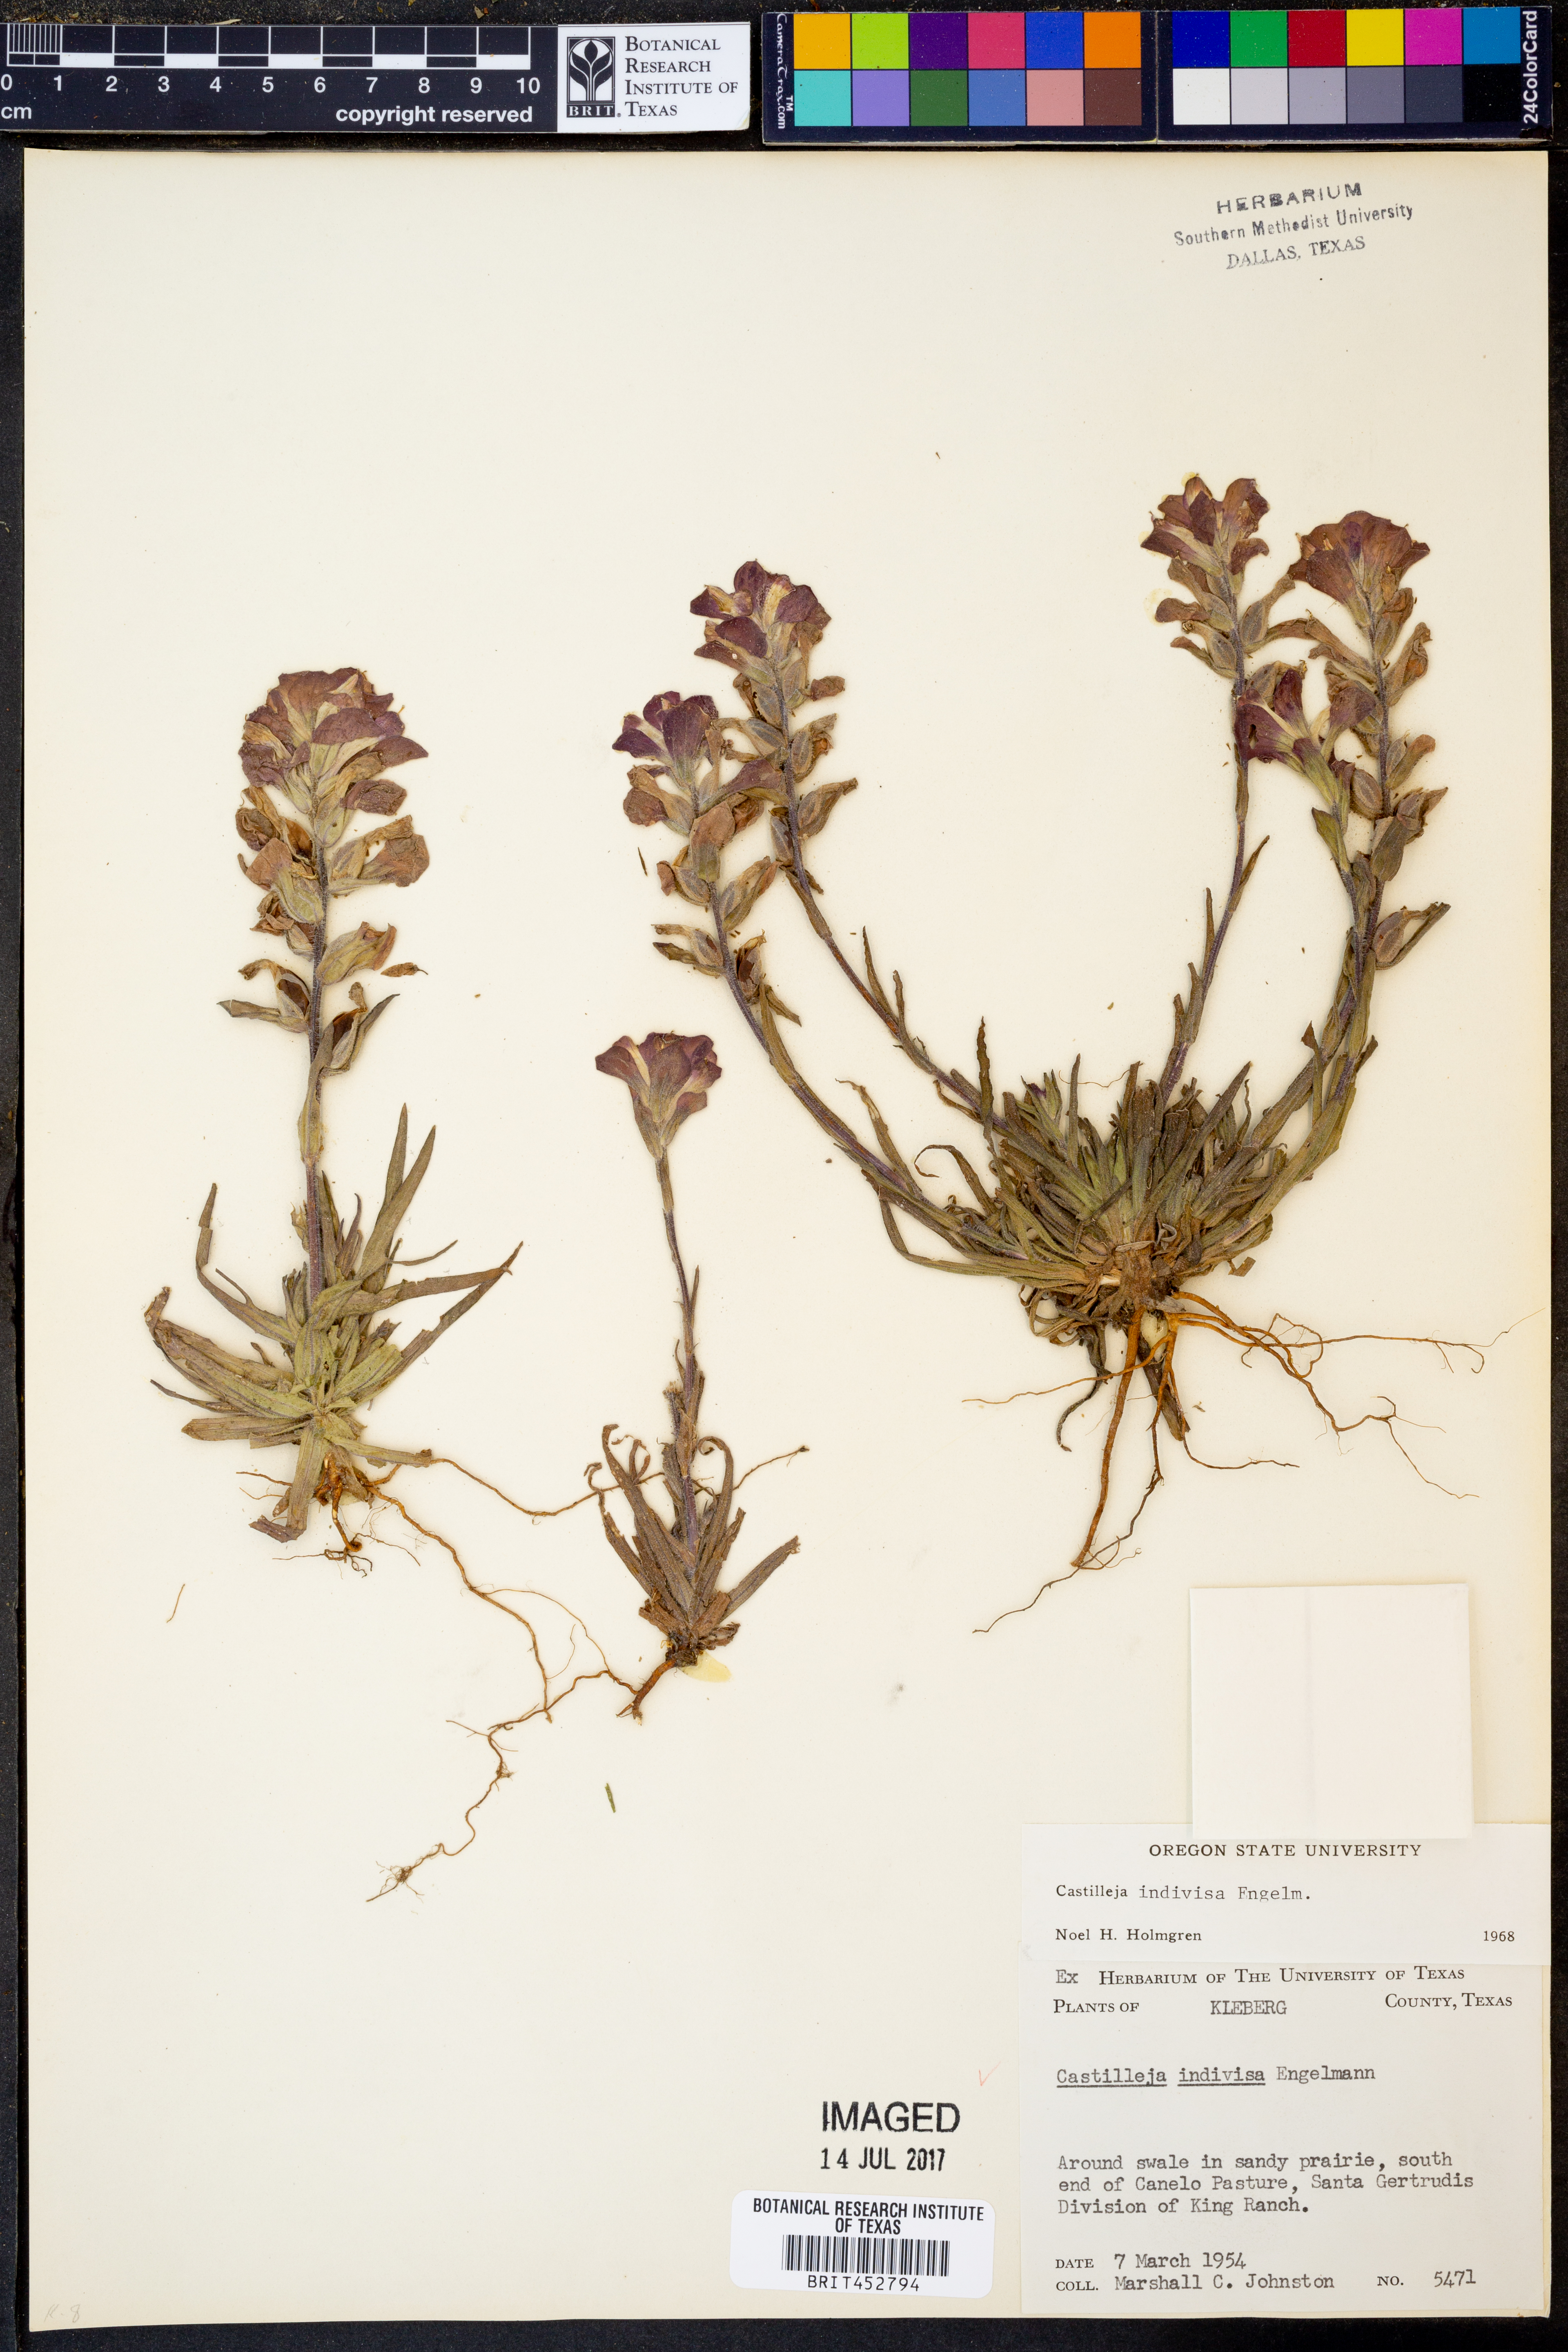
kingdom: Plantae
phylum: Tracheophyta
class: Magnoliopsida
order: Lamiales
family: Orobanchaceae
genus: Castilleja
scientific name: Castilleja indivisa
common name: Texas paintbrush
